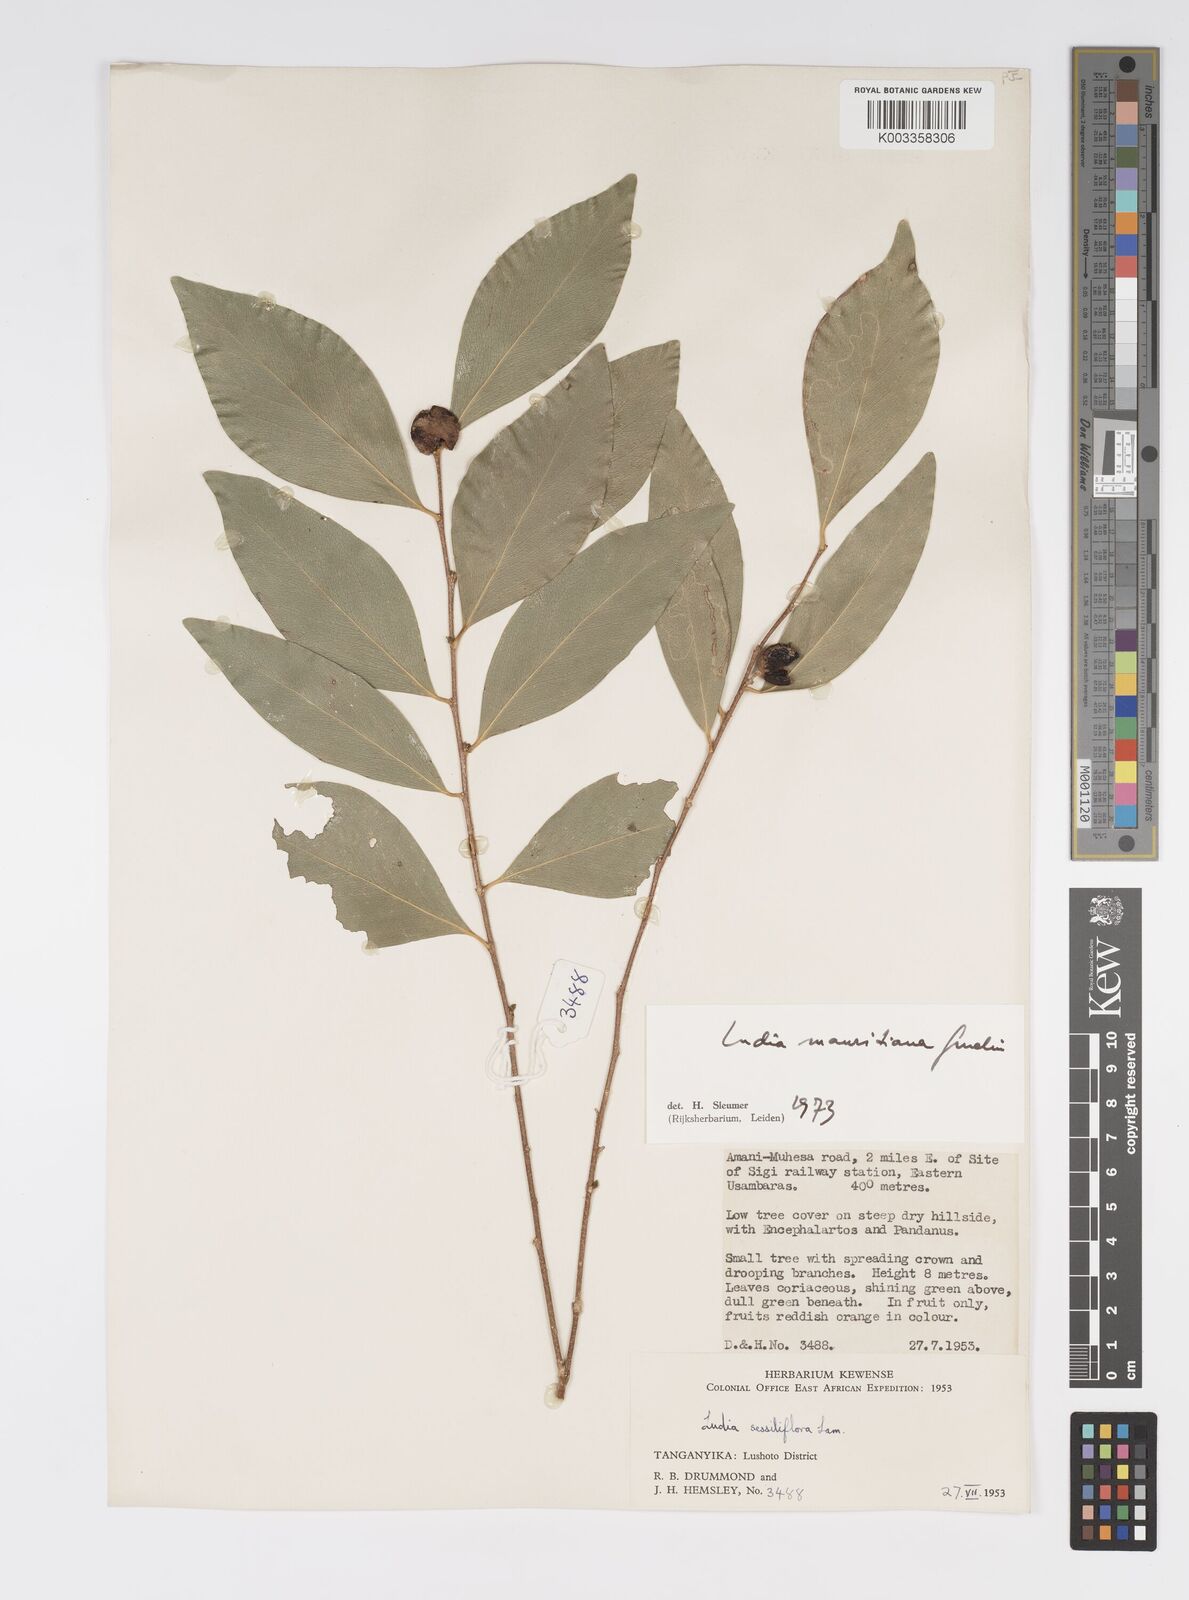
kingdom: Plantae
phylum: Tracheophyta
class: Magnoliopsida
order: Malpighiales
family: Salicaceae
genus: Ludia
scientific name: Ludia mauritiana
